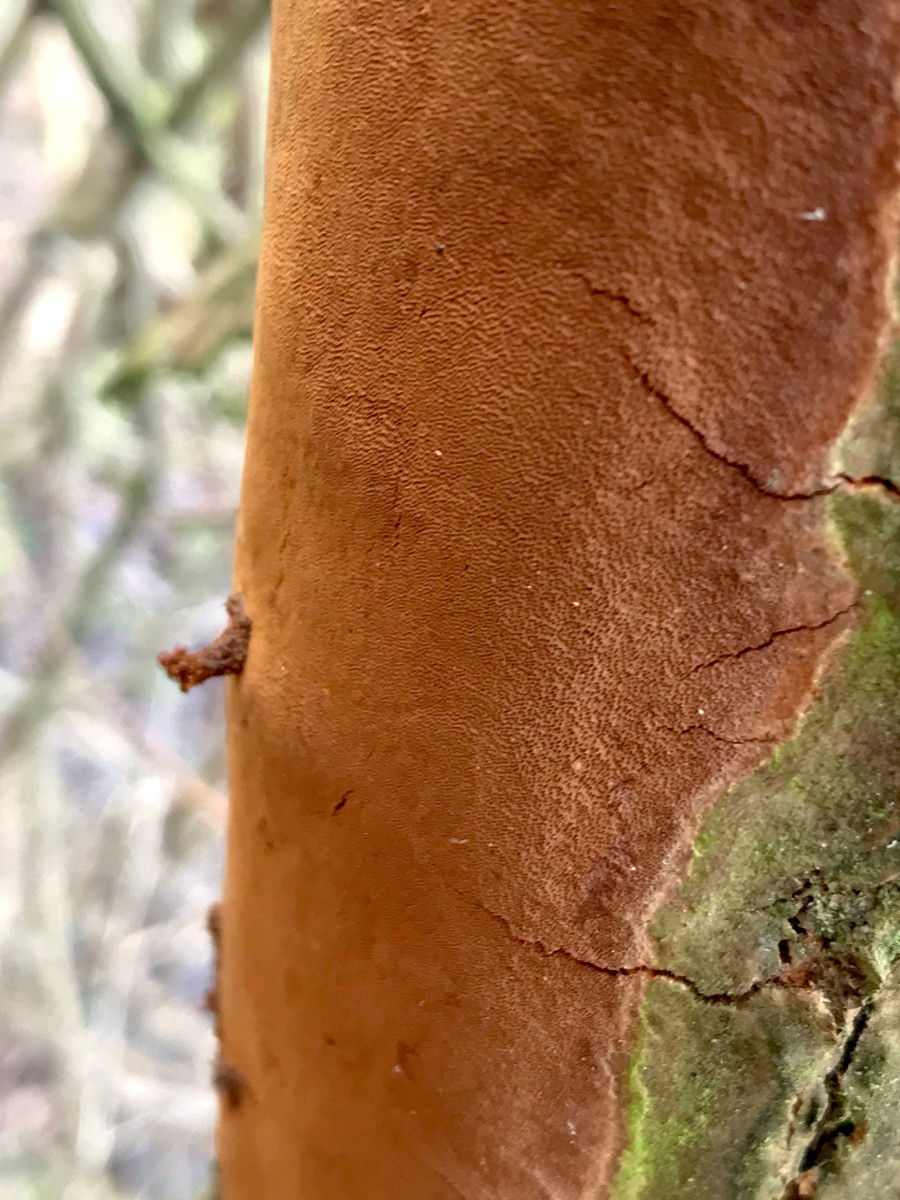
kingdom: Fungi
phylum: Basidiomycota
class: Agaricomycetes
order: Hymenochaetales
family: Hymenochaetaceae
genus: Fomitiporia
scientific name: Fomitiporia punctata
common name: pude-ildporesvamp
